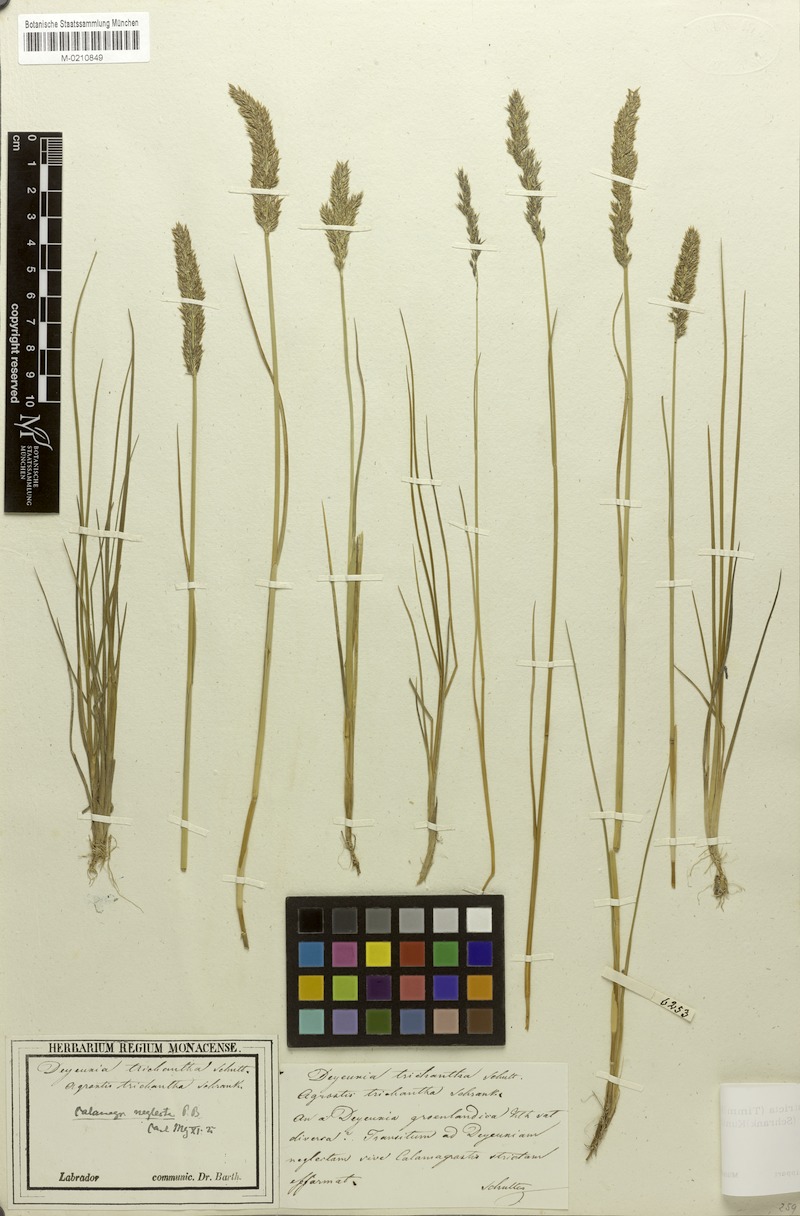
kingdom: Plantae
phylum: Tracheophyta
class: Liliopsida
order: Poales
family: Poaceae
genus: Calamagrostis
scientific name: Calamagrostis stricta
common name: Narrow small-reed
